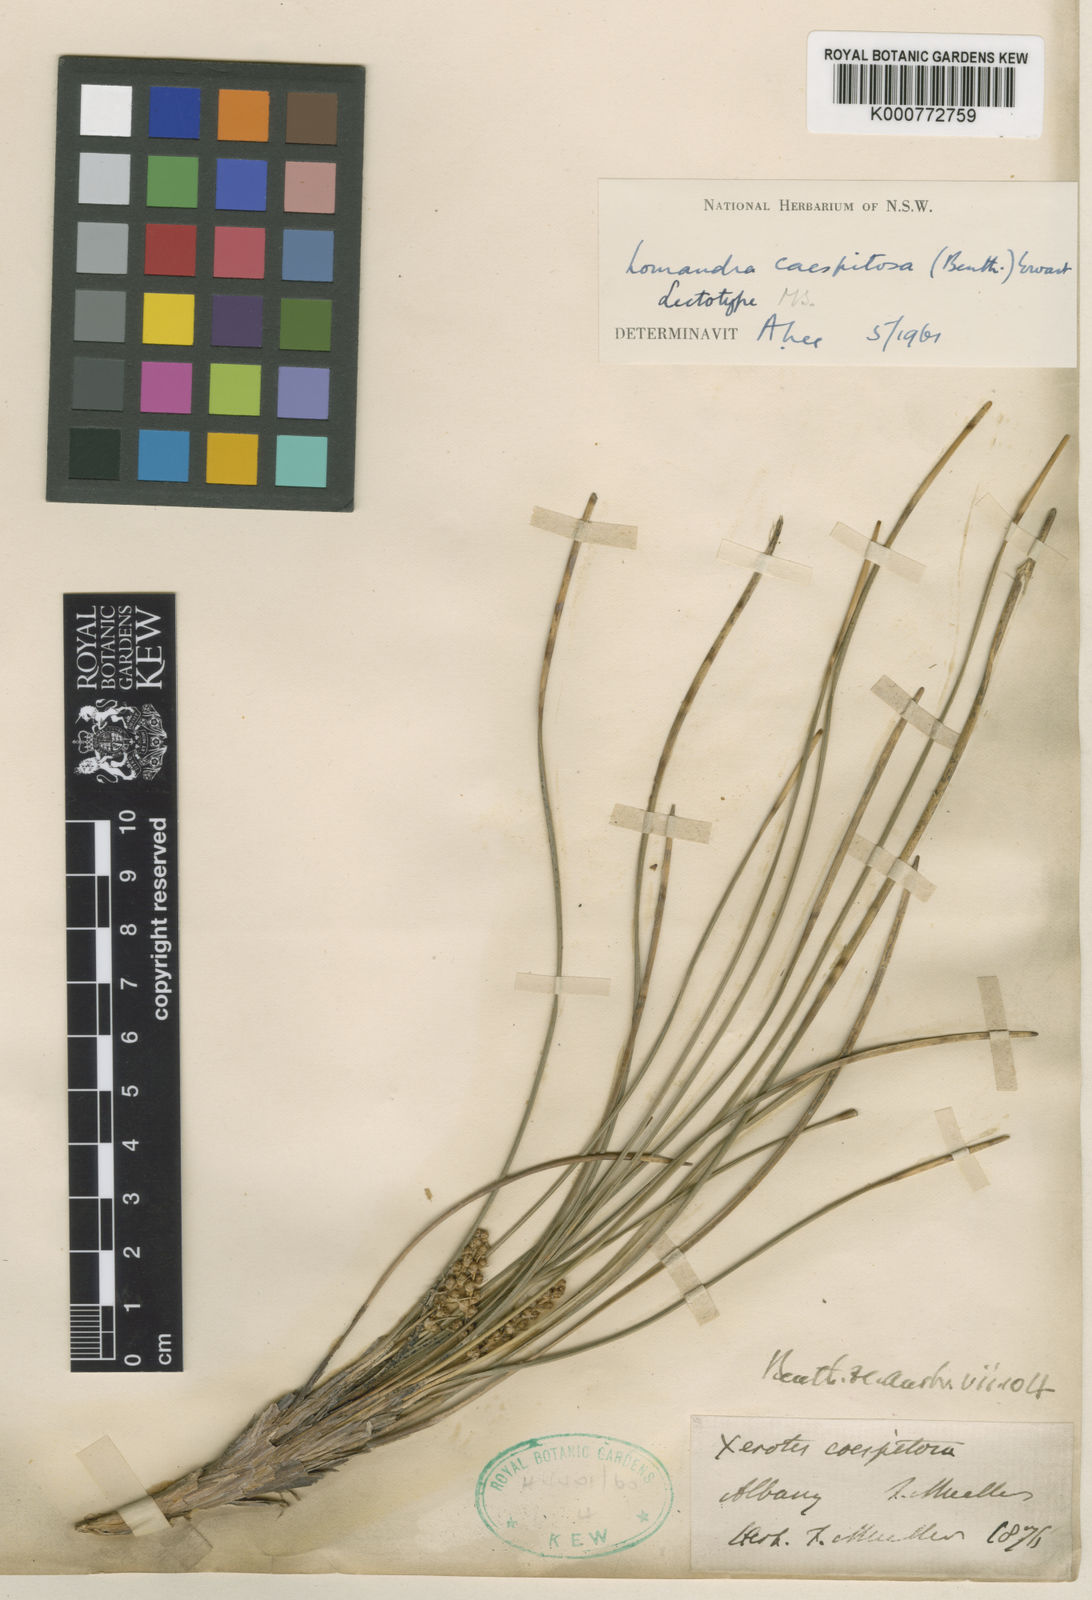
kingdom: Plantae
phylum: Tracheophyta
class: Liliopsida
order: Asparagales
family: Asparagaceae
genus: Lomandra
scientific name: Lomandra caespitosa
